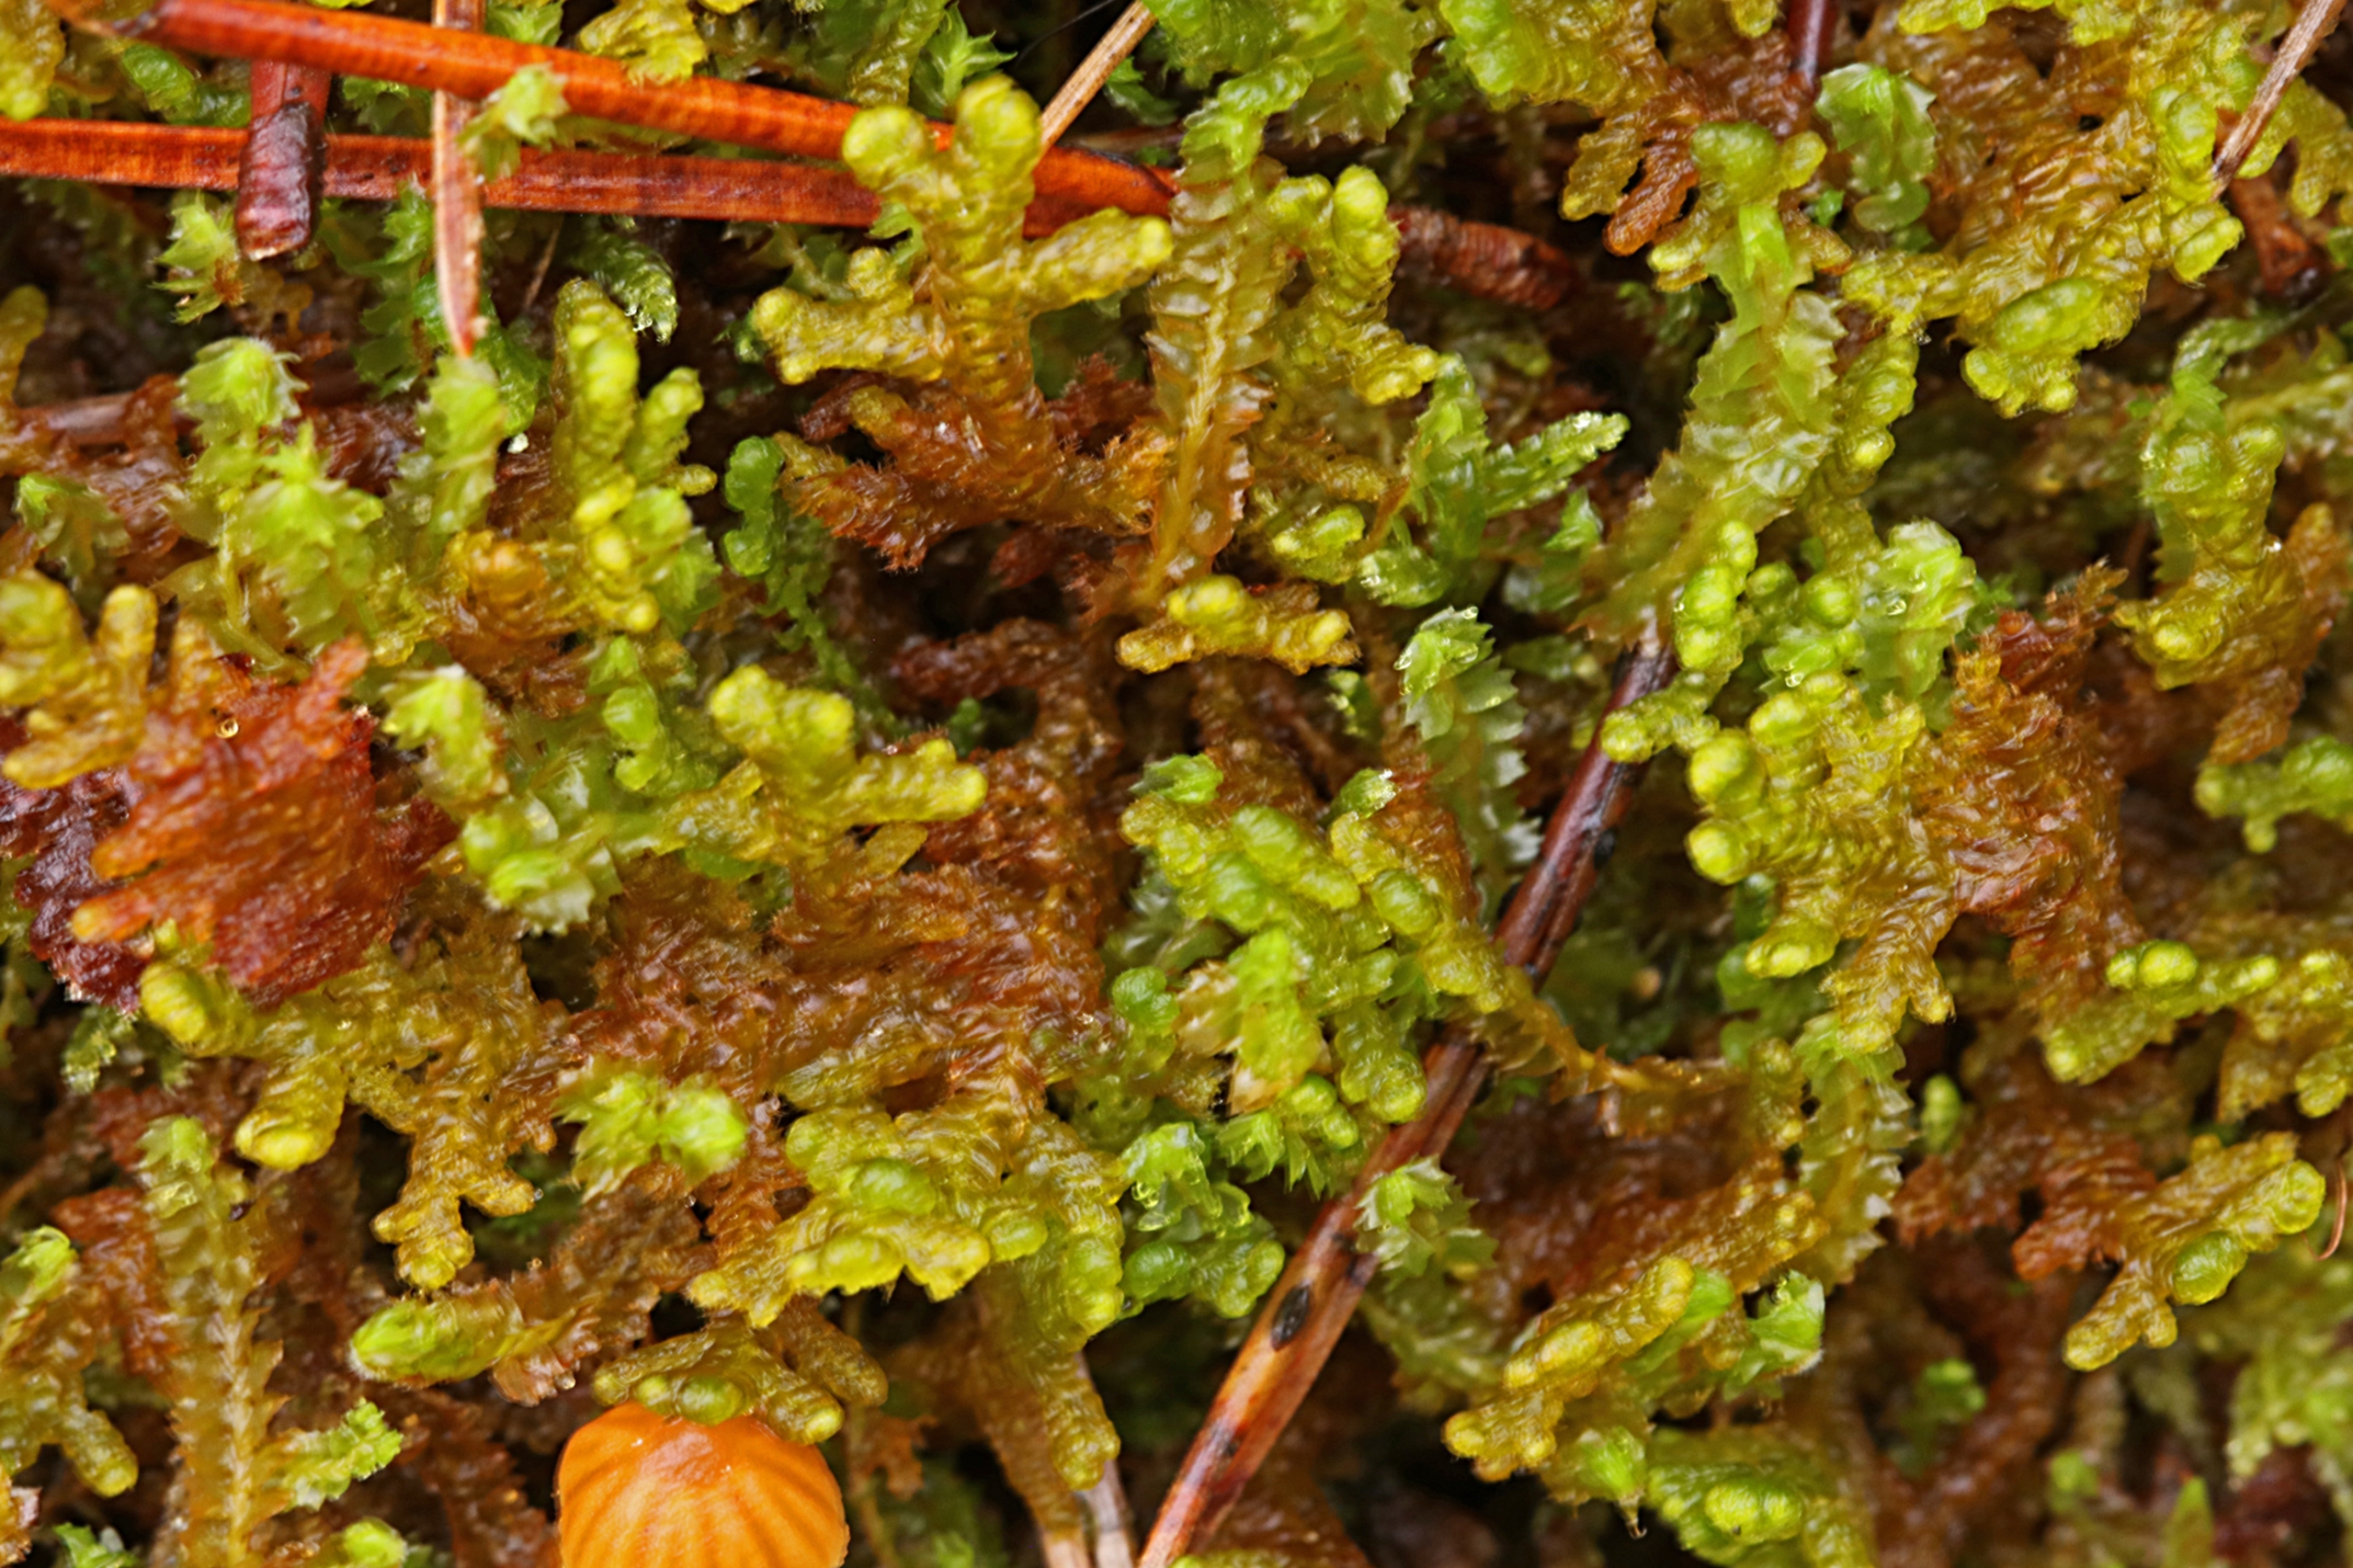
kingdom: Plantae
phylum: Marchantiophyta
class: Jungermanniopsida
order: Ptilidiales
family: Ptilidiaceae
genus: Ptilidium
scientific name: Ptilidium ciliare
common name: Almindelig frynsemos
